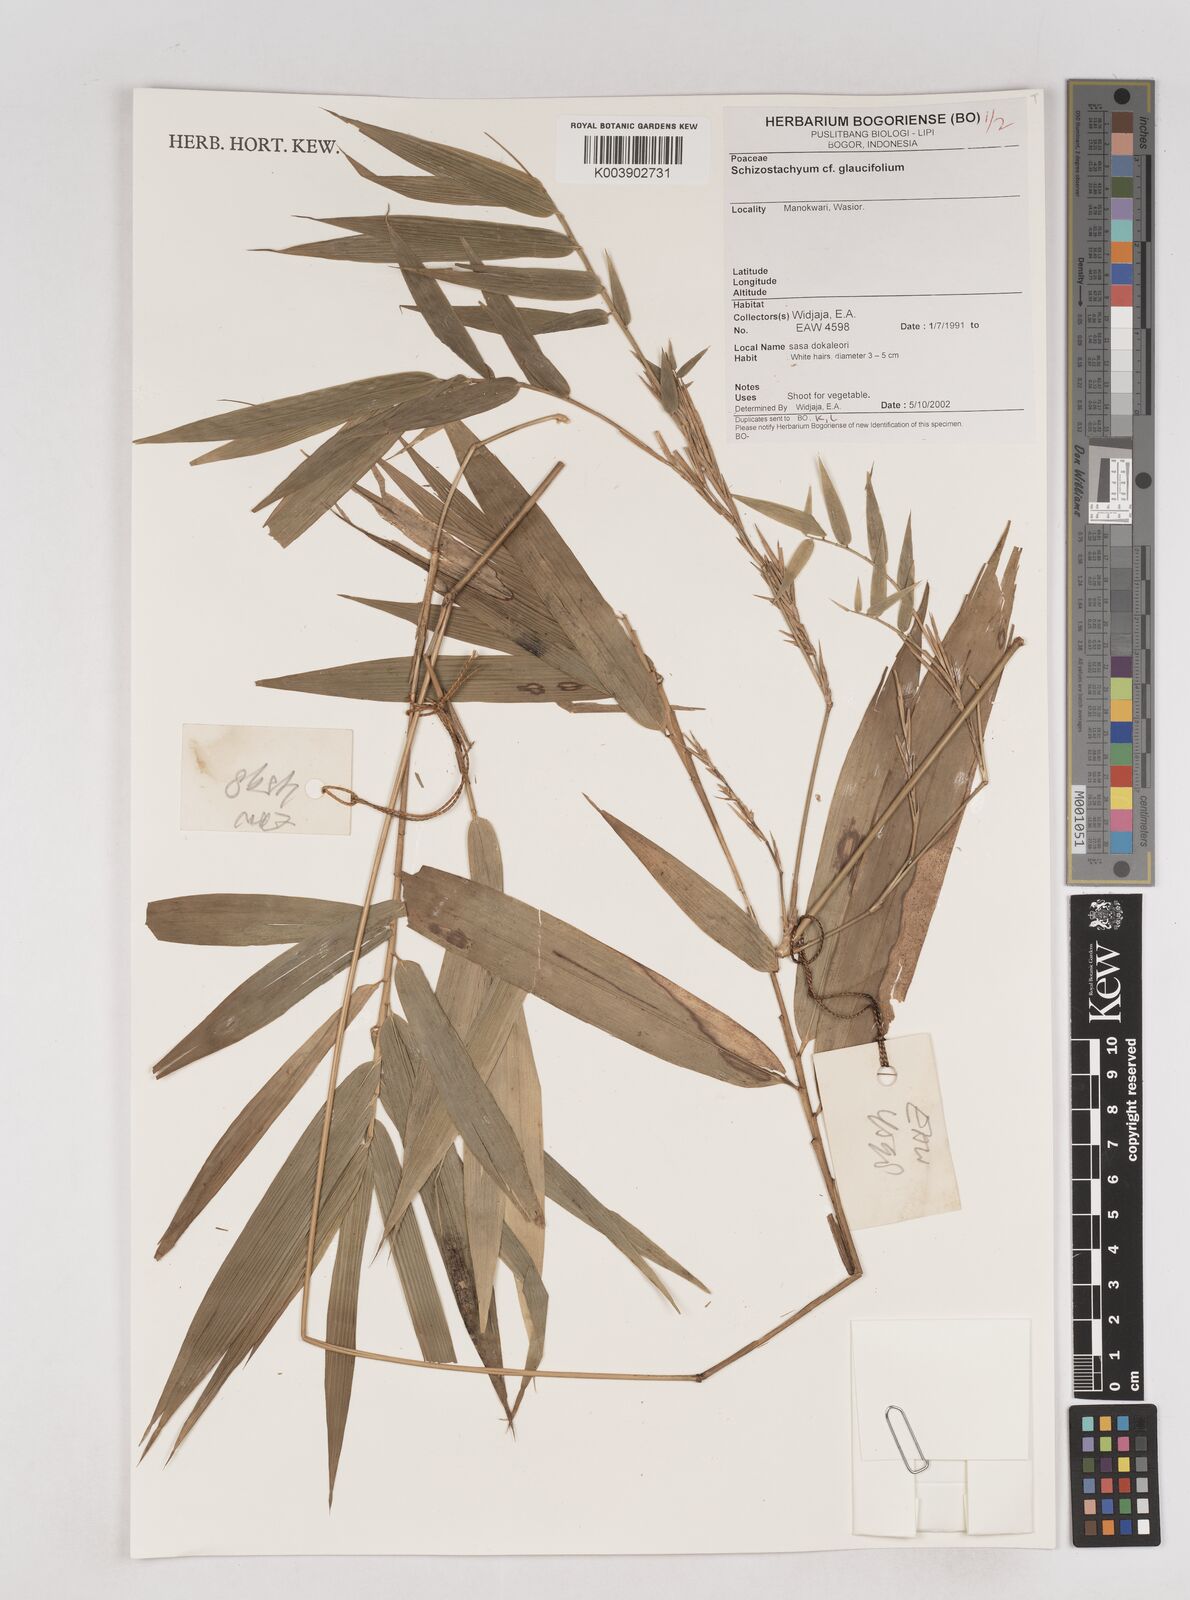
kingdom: Plantae
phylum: Tracheophyta
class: Liliopsida
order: Poales
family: Poaceae
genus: Schizostachyum
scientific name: Schizostachyum glaucifolium
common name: Polynesian 'ohe
